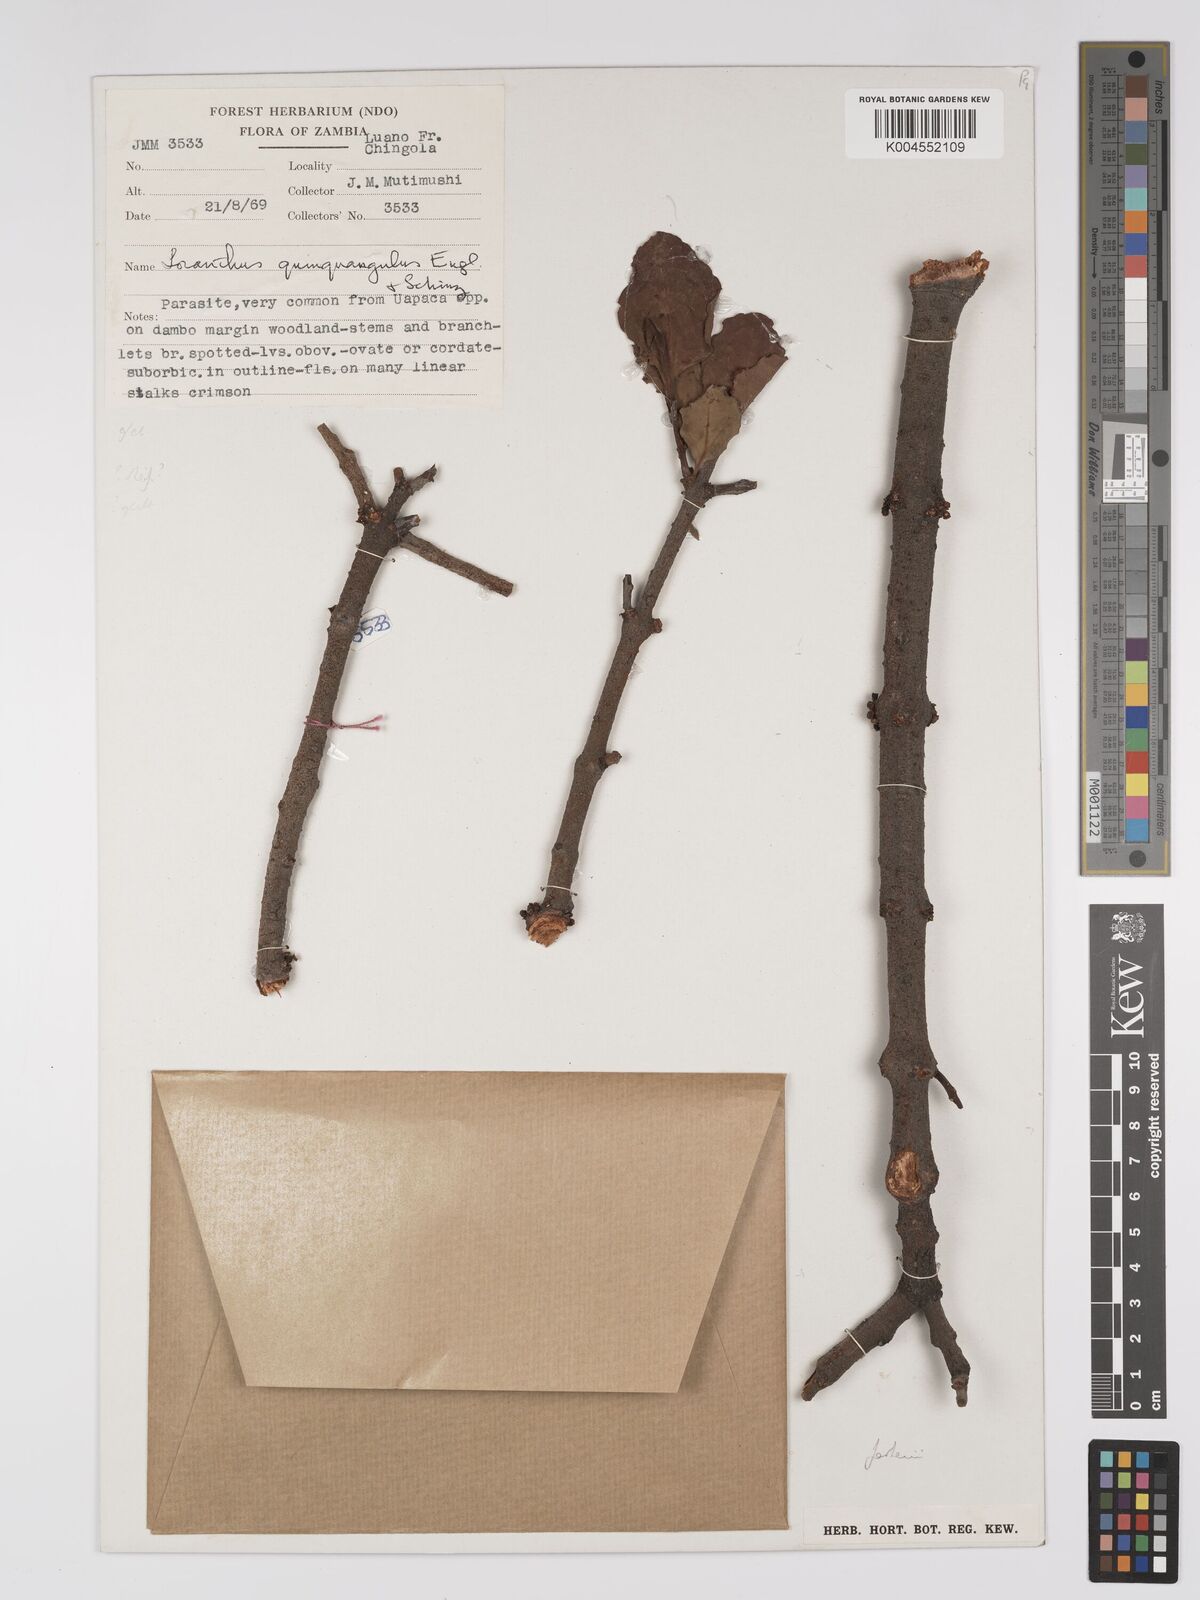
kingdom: Plantae
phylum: Tracheophyta
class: Magnoliopsida
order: Santalales
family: Loranthaceae
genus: Tapinanthus
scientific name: Tapinanthus forbesii
